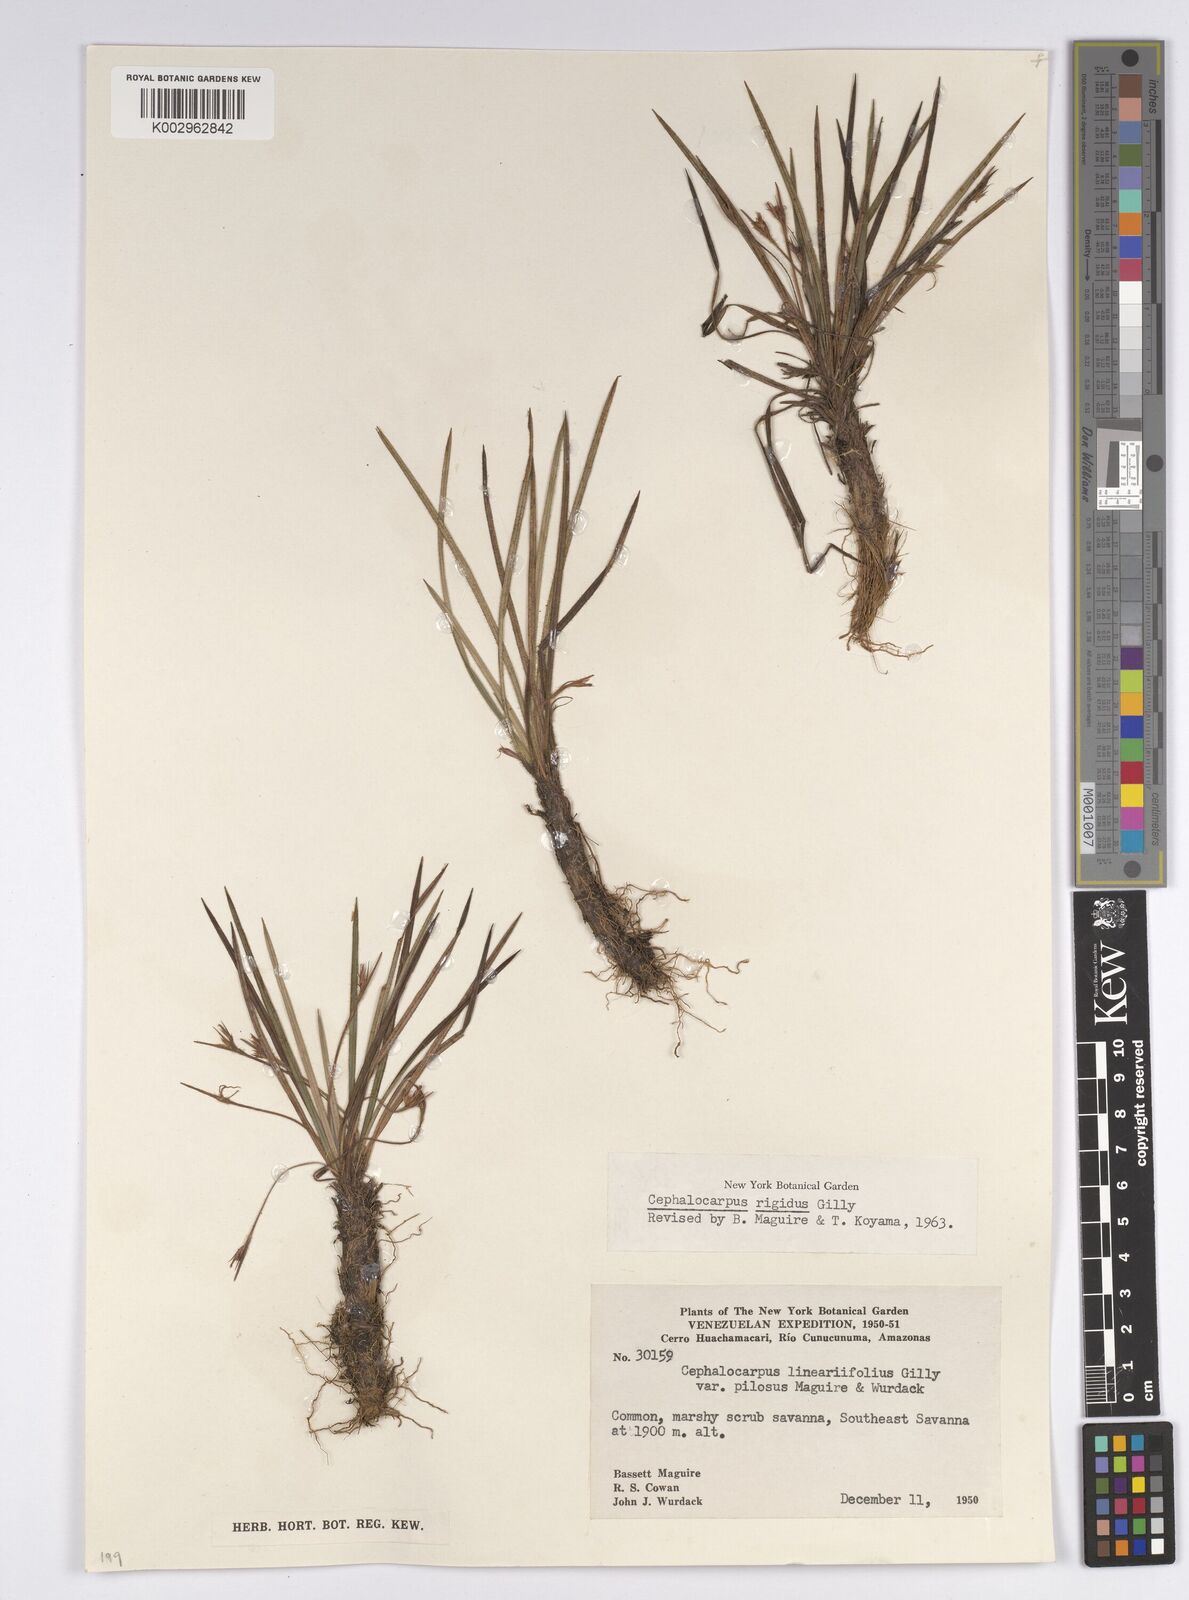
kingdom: Plantae
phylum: Tracheophyta
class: Liliopsida
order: Poales
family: Cyperaceae
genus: Cephalocarpus
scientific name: Cephalocarpus rigidus
